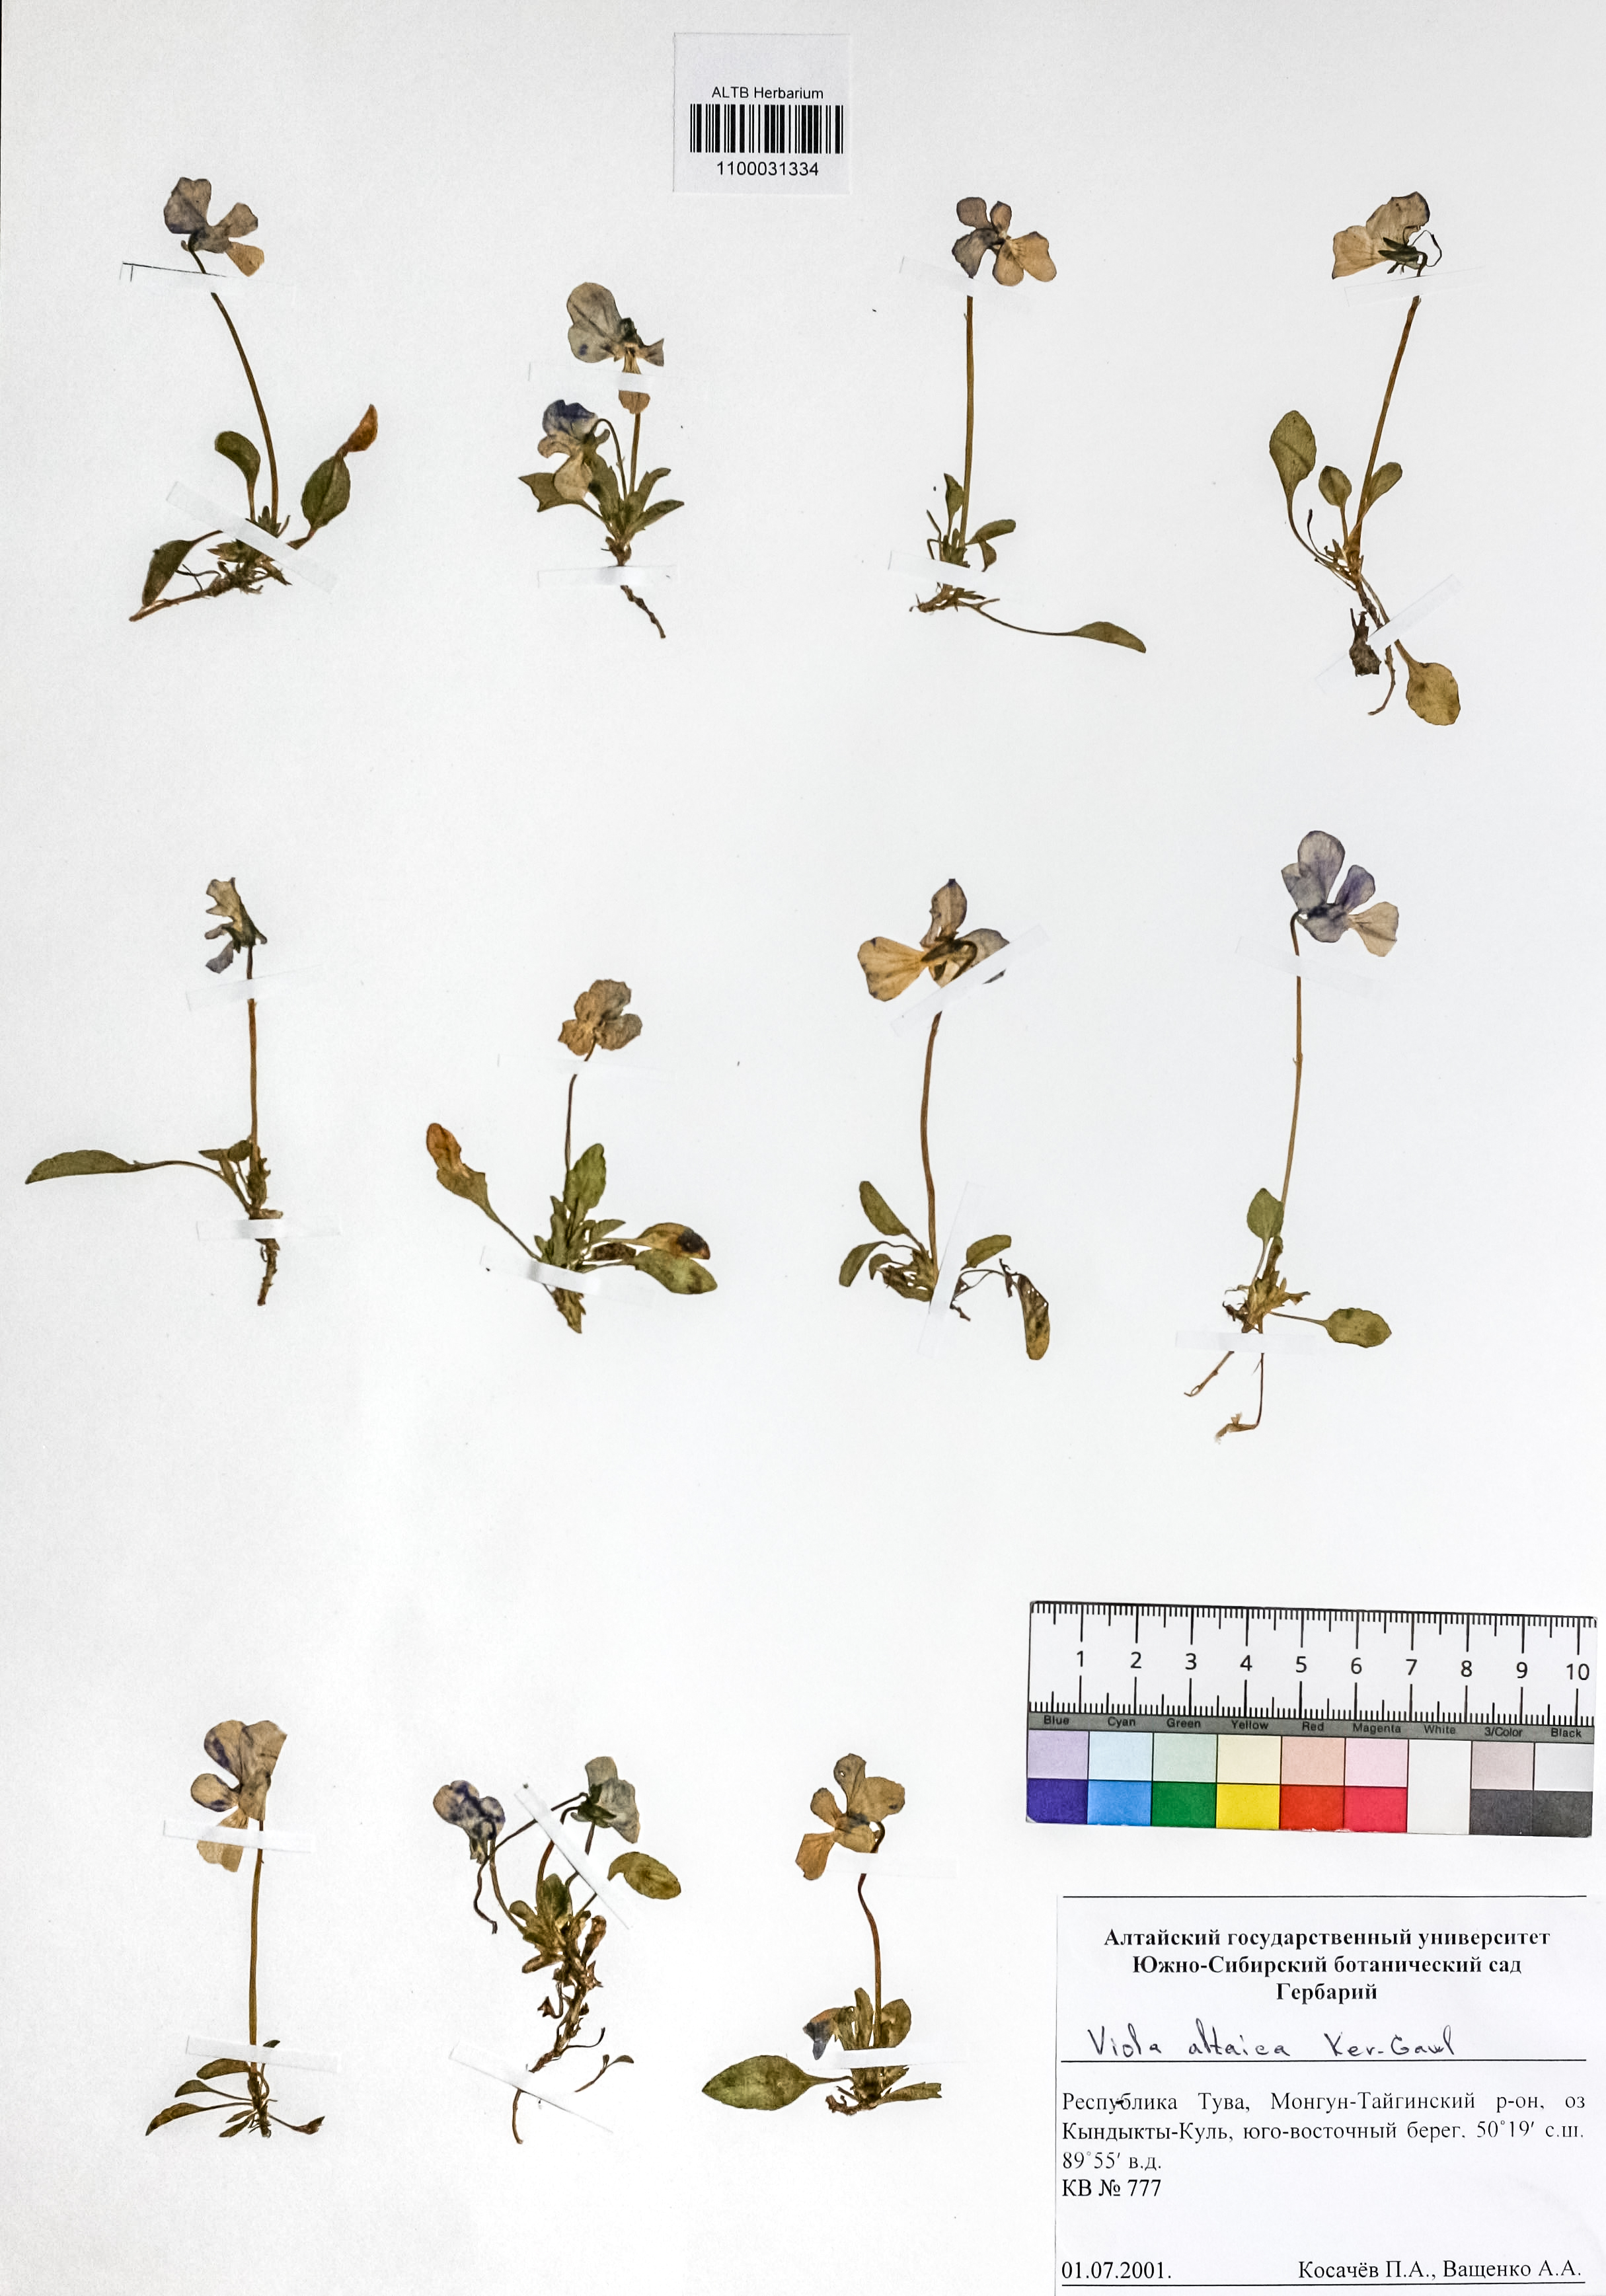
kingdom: Plantae
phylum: Tracheophyta
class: Magnoliopsida
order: Malpighiales
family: Violaceae
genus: Viola
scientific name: Viola altaica
